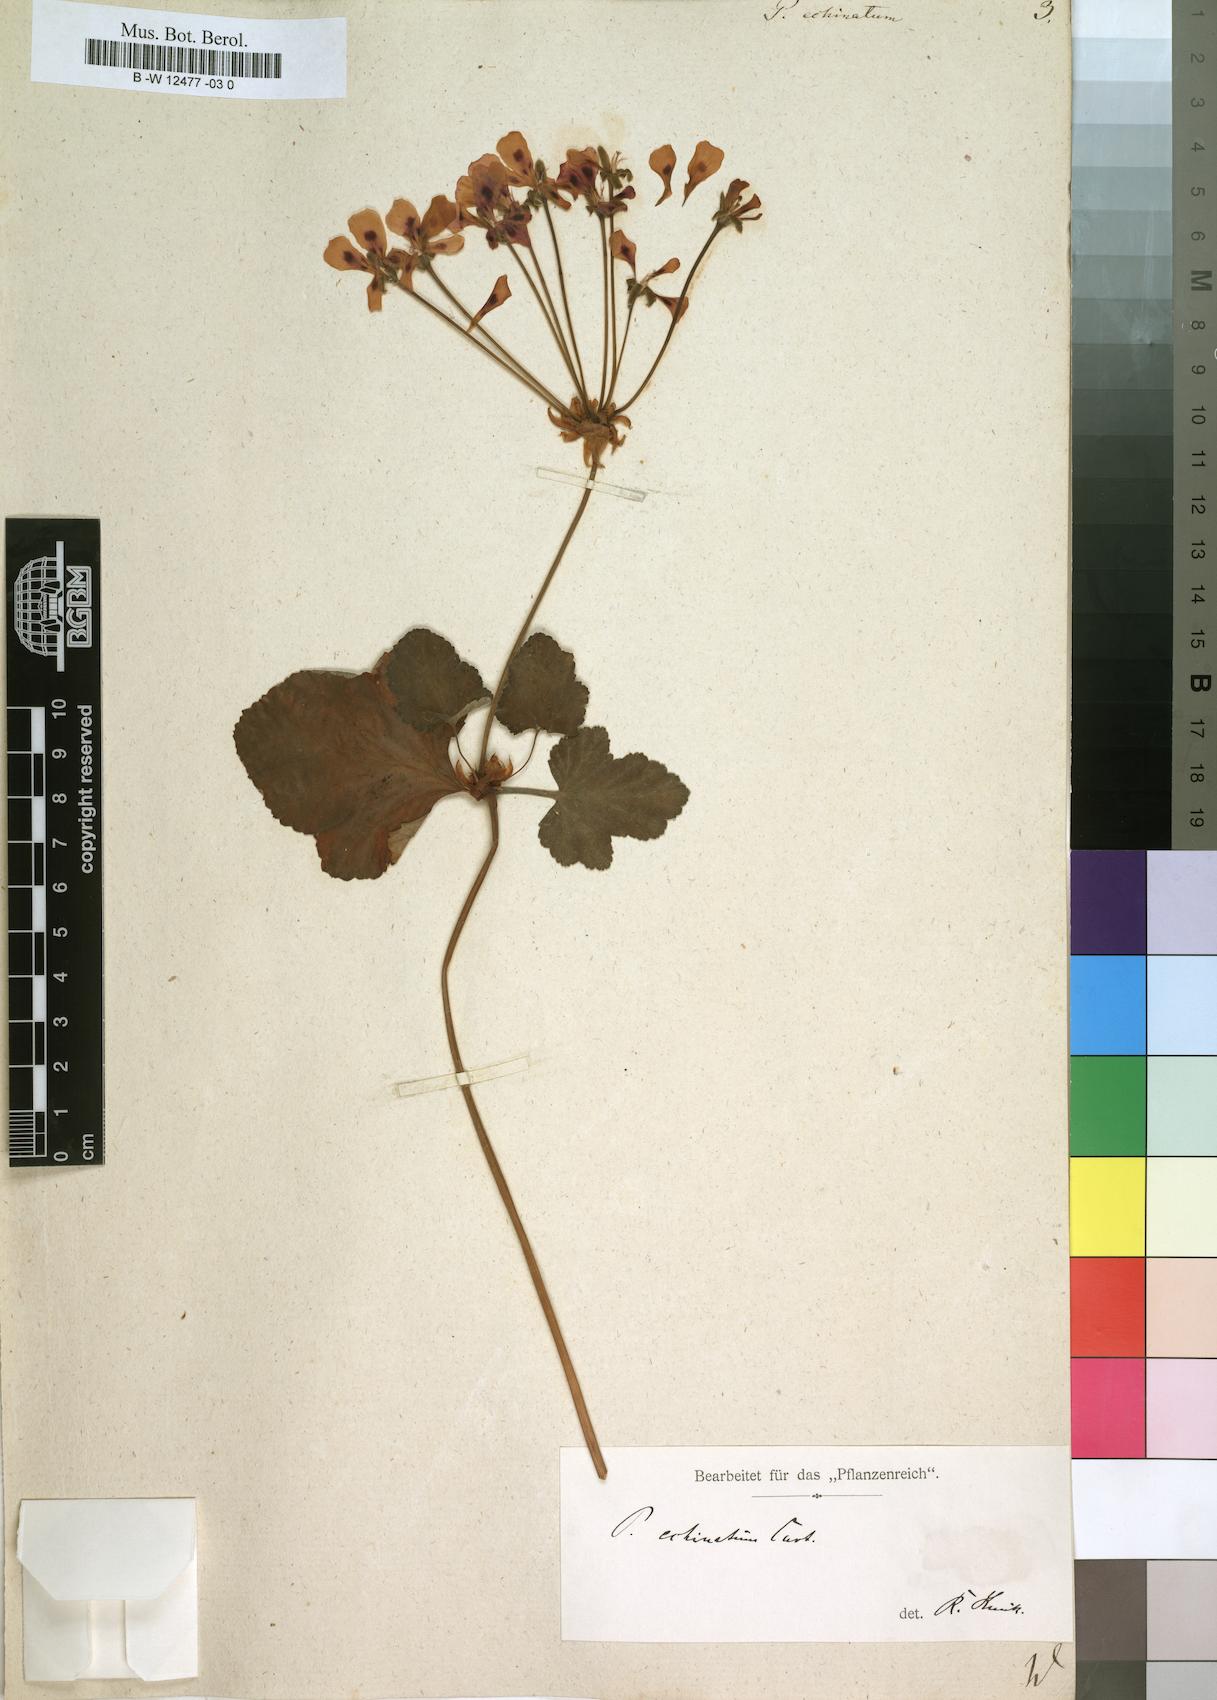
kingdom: Plantae
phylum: Tracheophyta
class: Magnoliopsida
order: Geraniales
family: Geraniaceae
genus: Pelargonium
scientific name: Pelargonium echinatum
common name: Cactus geranium
